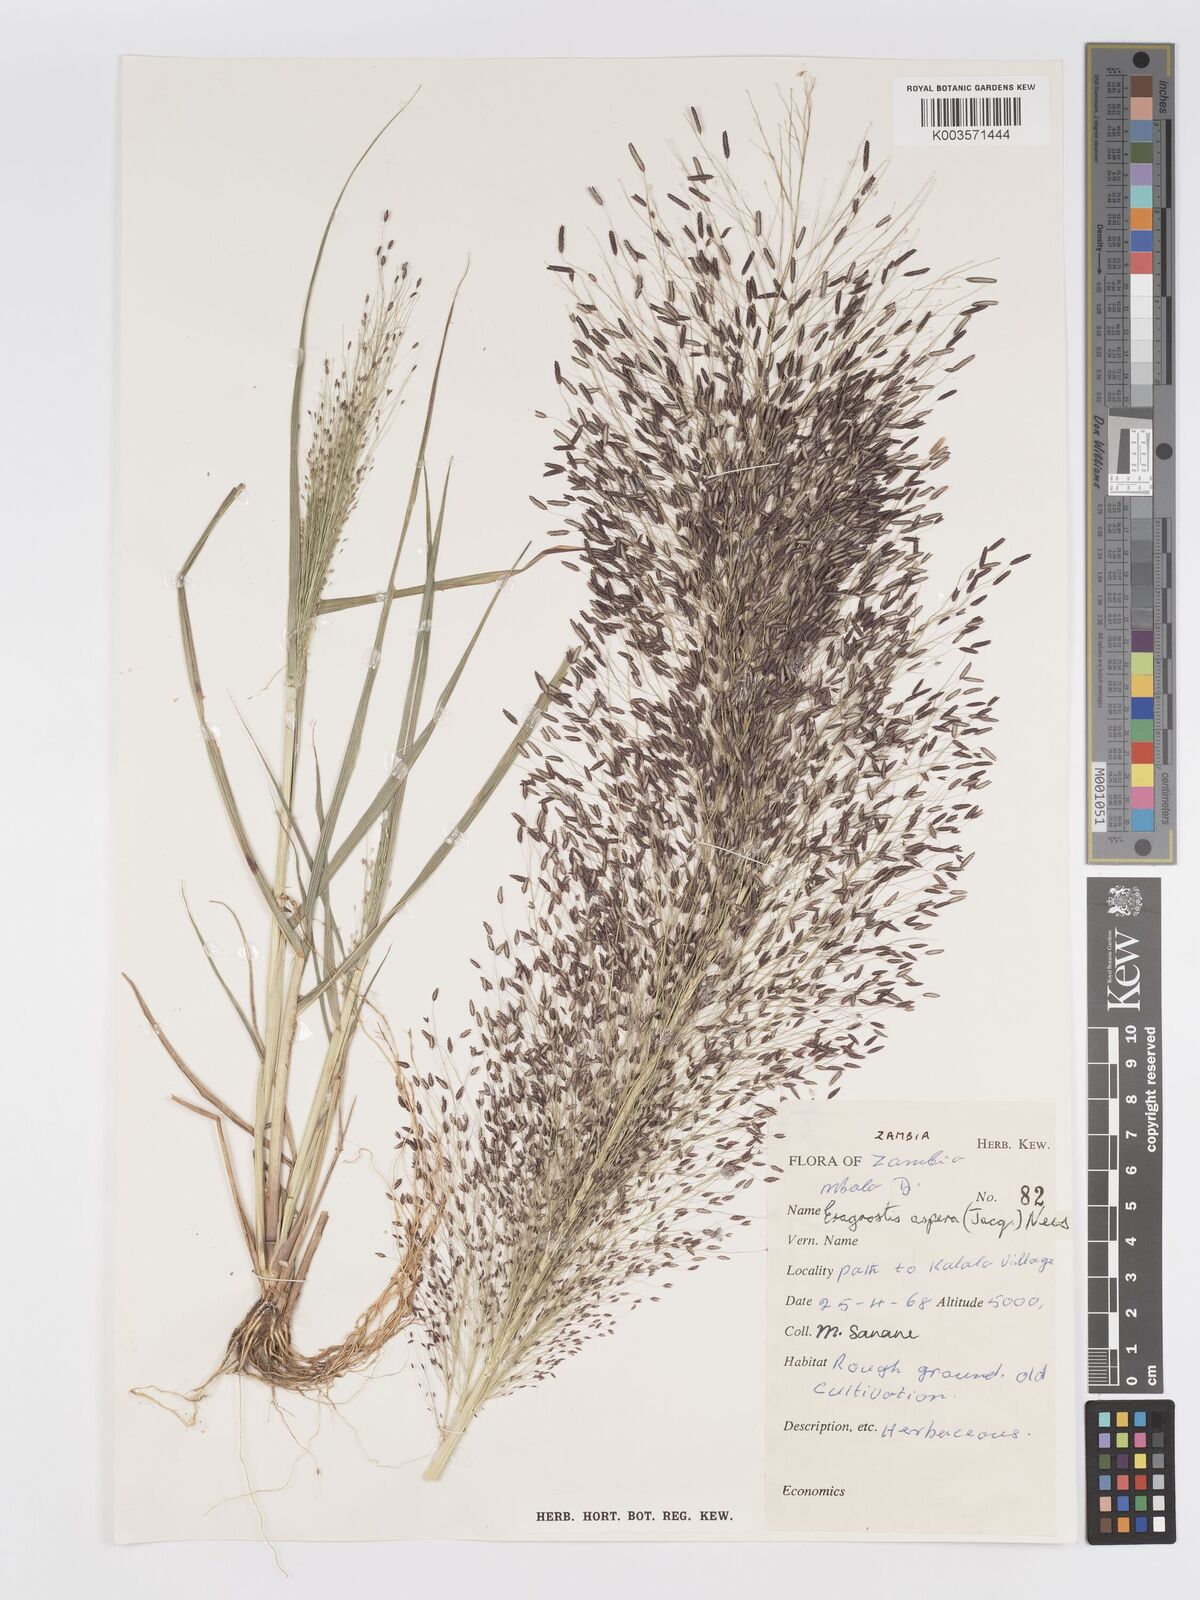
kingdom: Plantae
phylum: Tracheophyta
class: Liliopsida
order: Poales
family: Poaceae
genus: Eragrostis
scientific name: Eragrostis aspera
